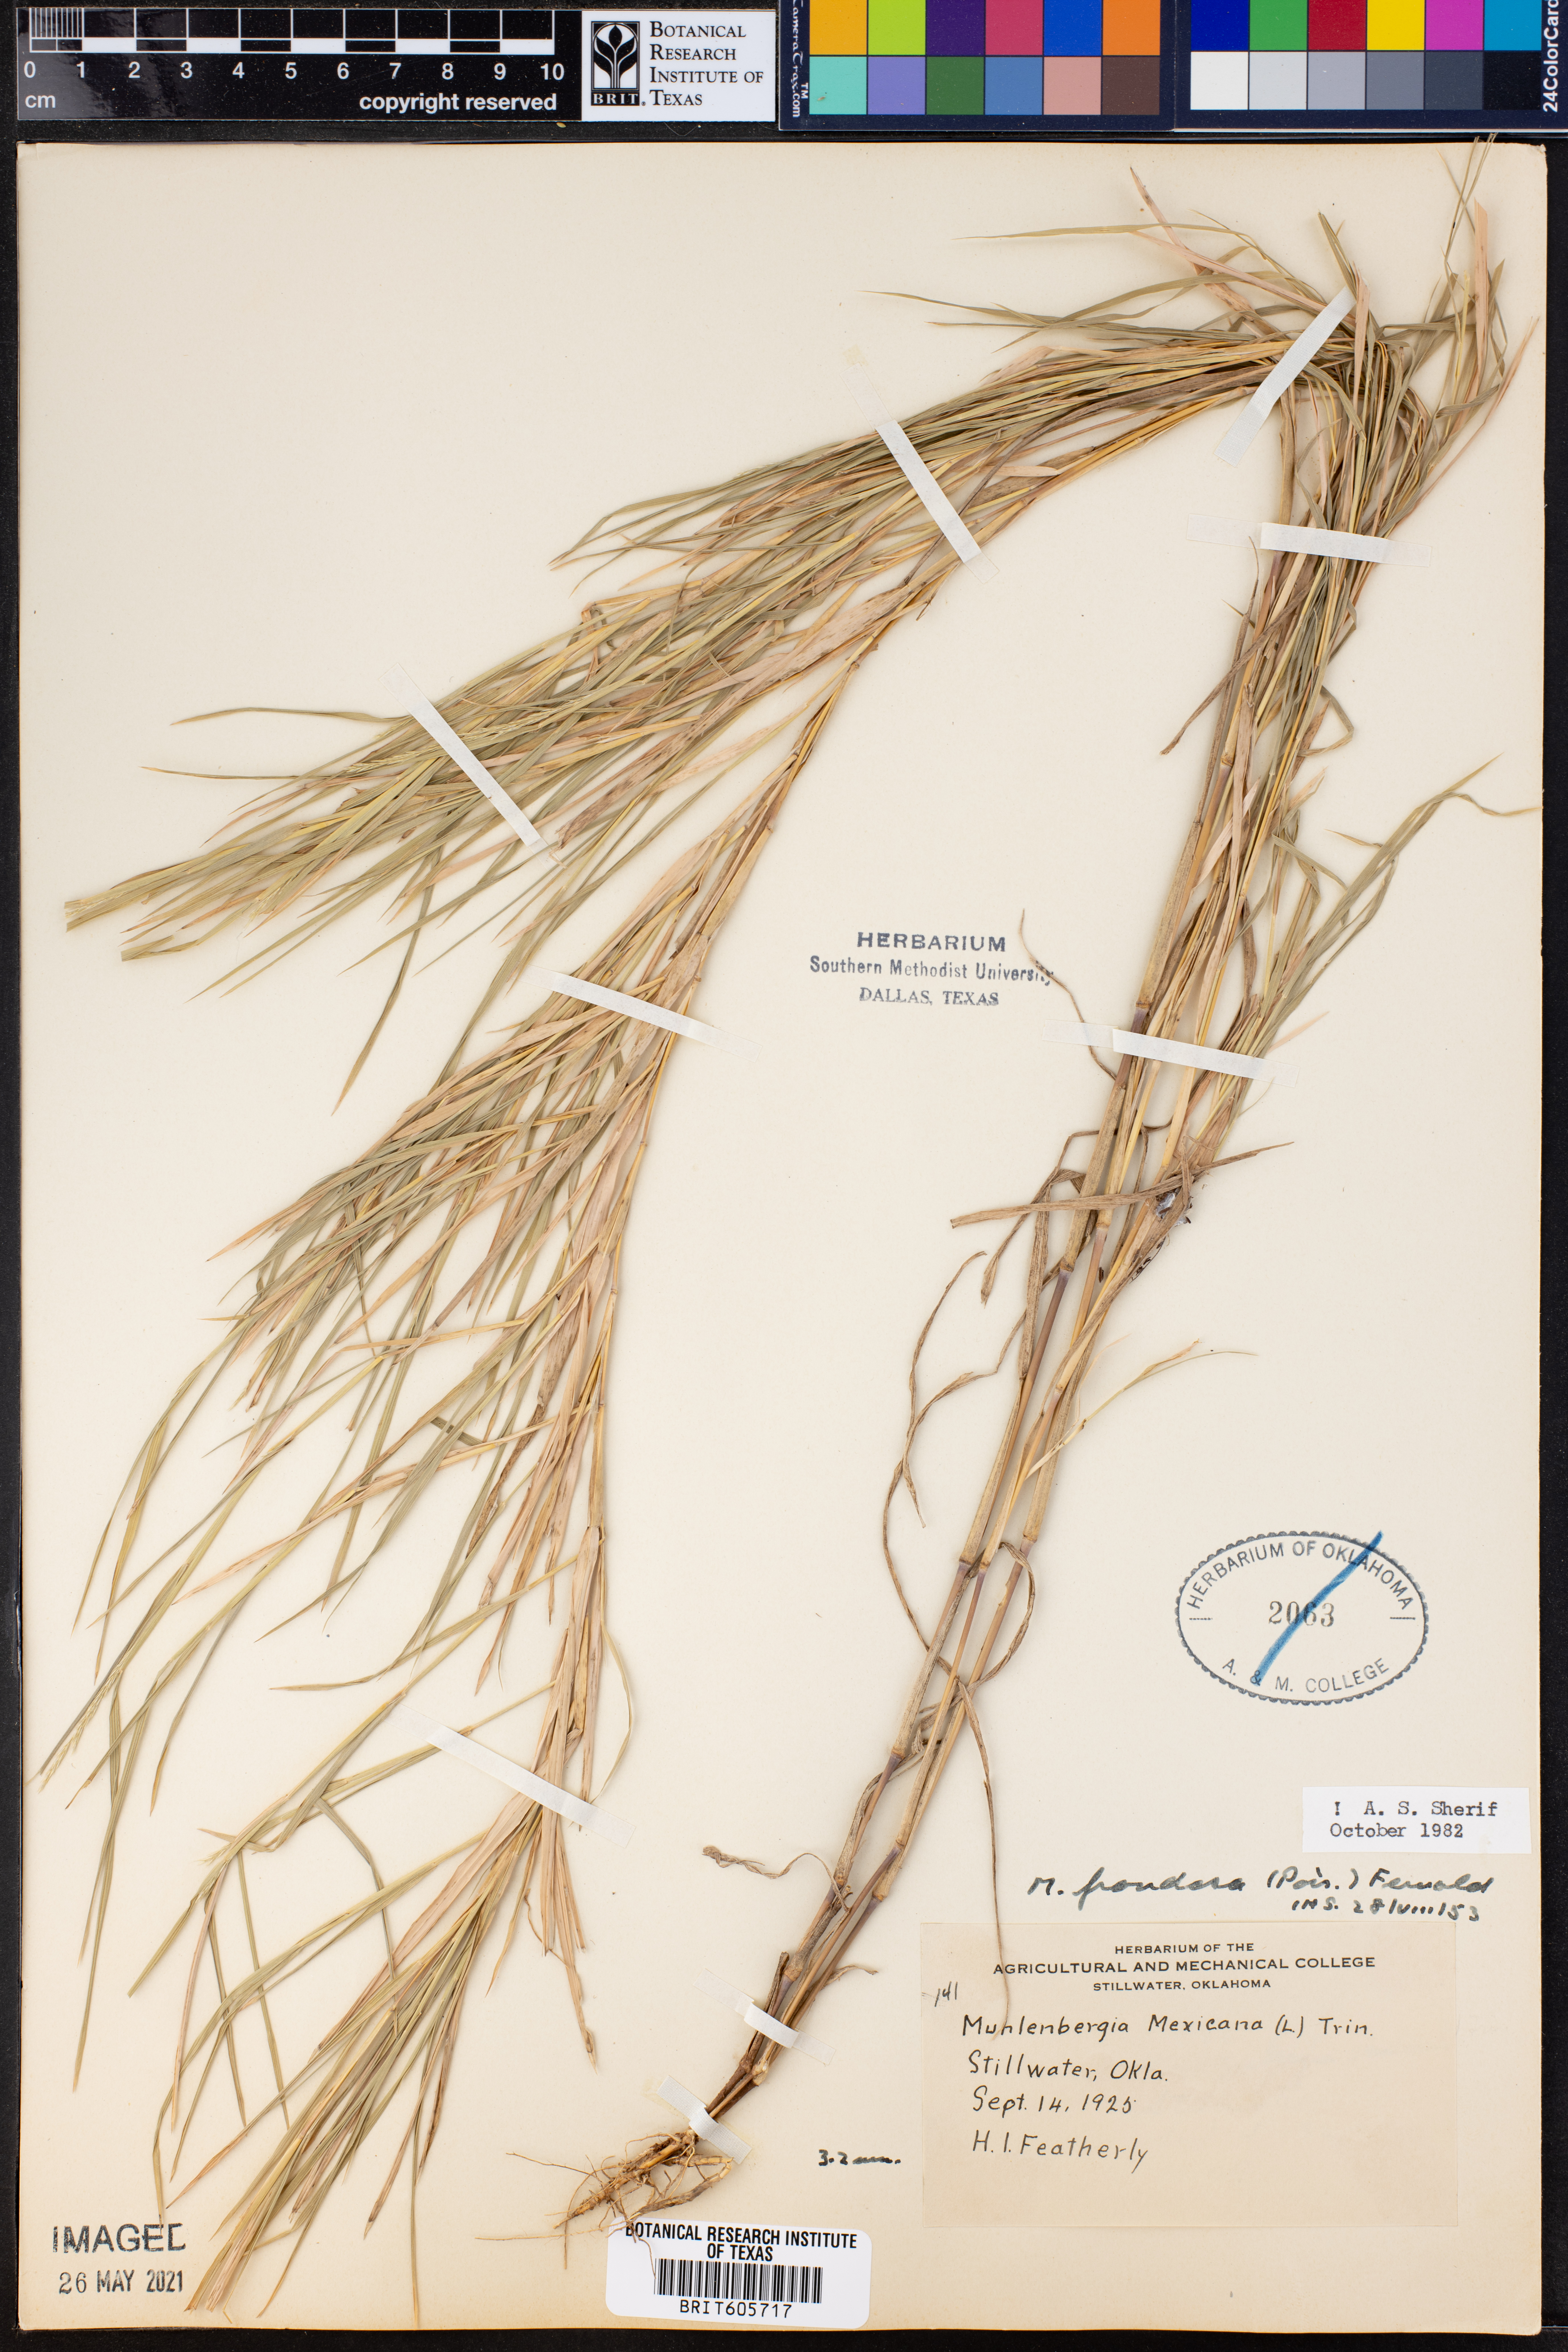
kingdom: Plantae
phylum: Tracheophyta
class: Liliopsida
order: Poales
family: Poaceae
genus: Muhlenbergia
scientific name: Muhlenbergia frondosa
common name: Common satingrass
